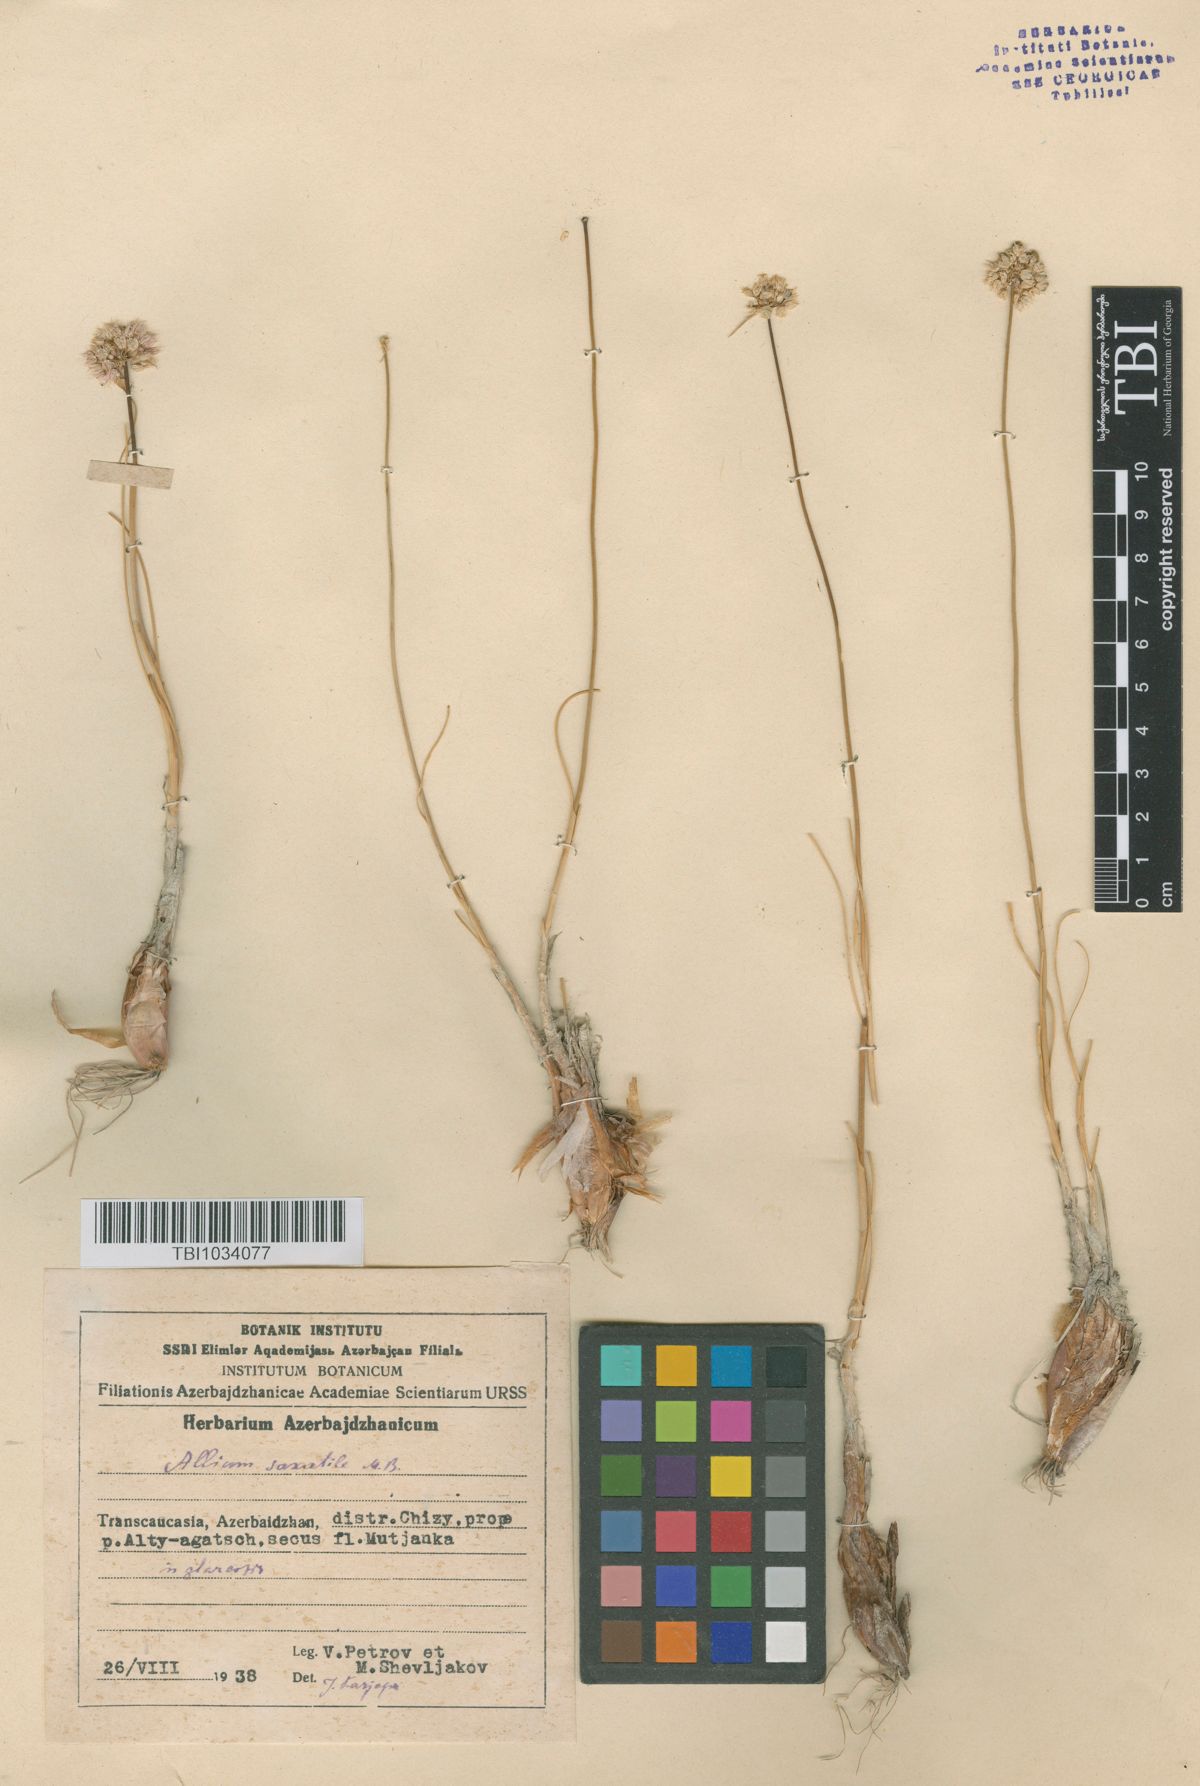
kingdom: Plantae
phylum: Tracheophyta
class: Liliopsida
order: Asparagales
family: Amaryllidaceae
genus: Allium
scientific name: Allium saxatile
